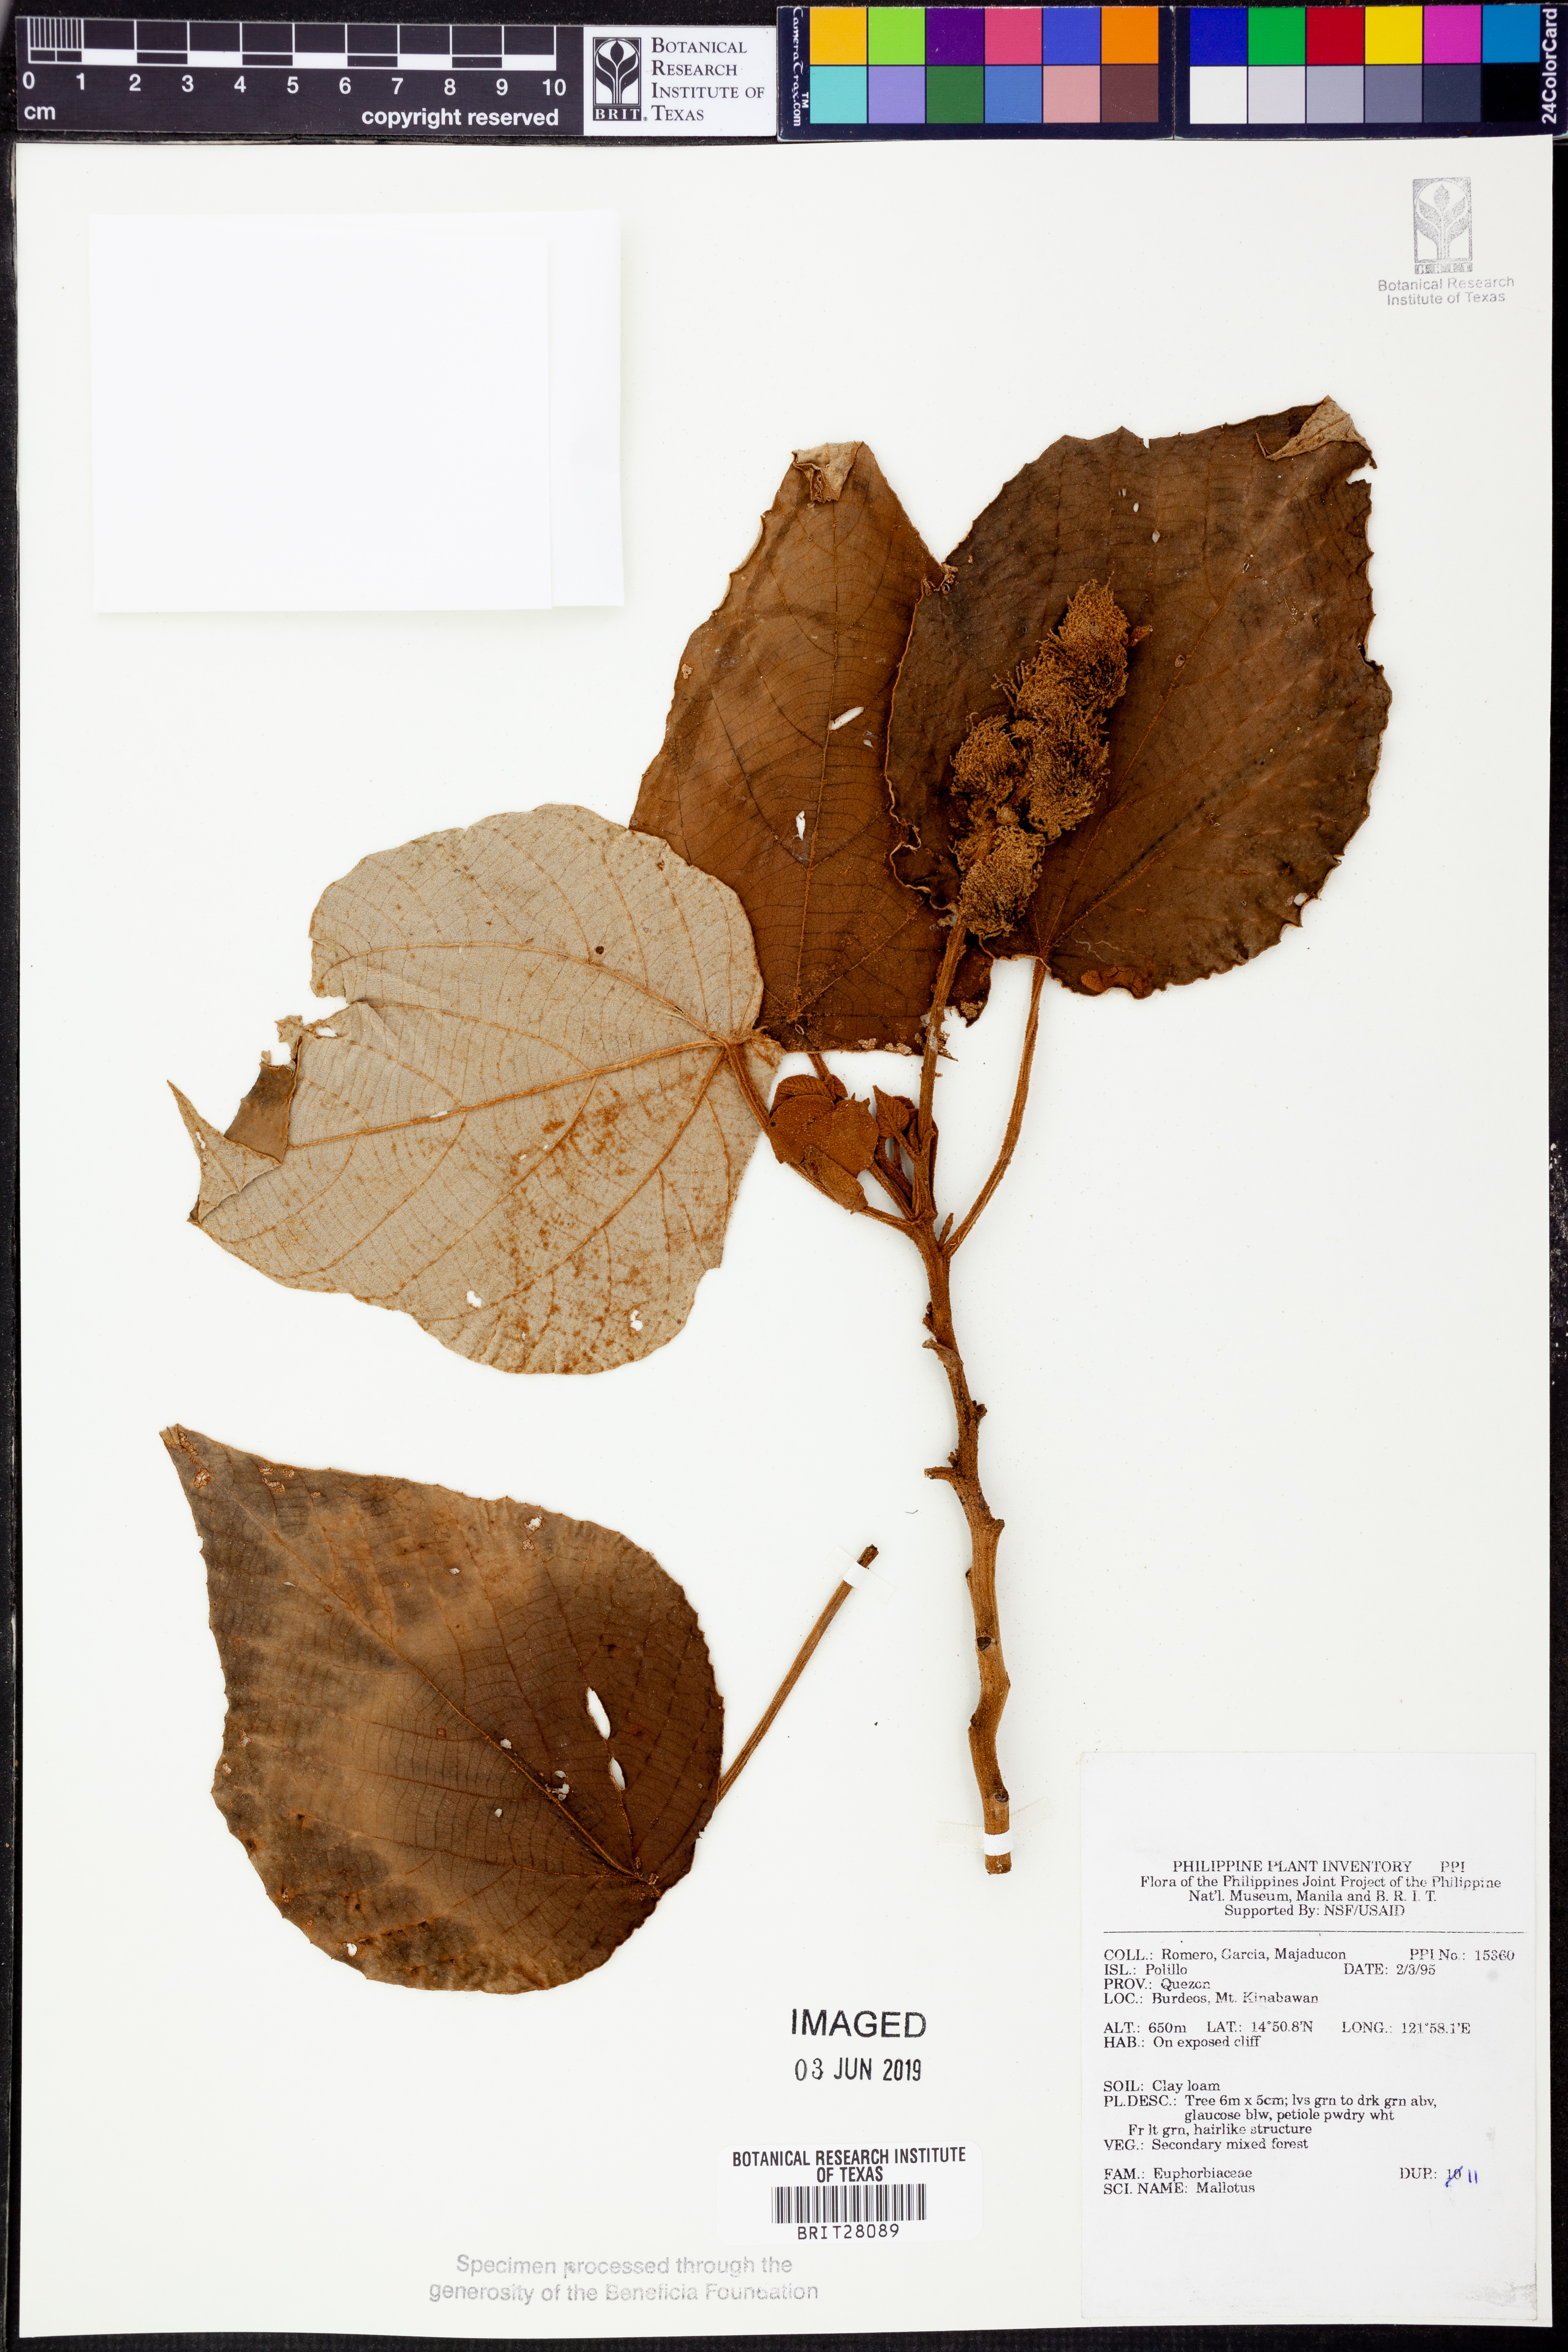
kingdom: Plantae
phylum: Tracheophyta
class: Magnoliopsida
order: Malpighiales
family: Euphorbiaceae
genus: Mallotus
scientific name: Mallotus
